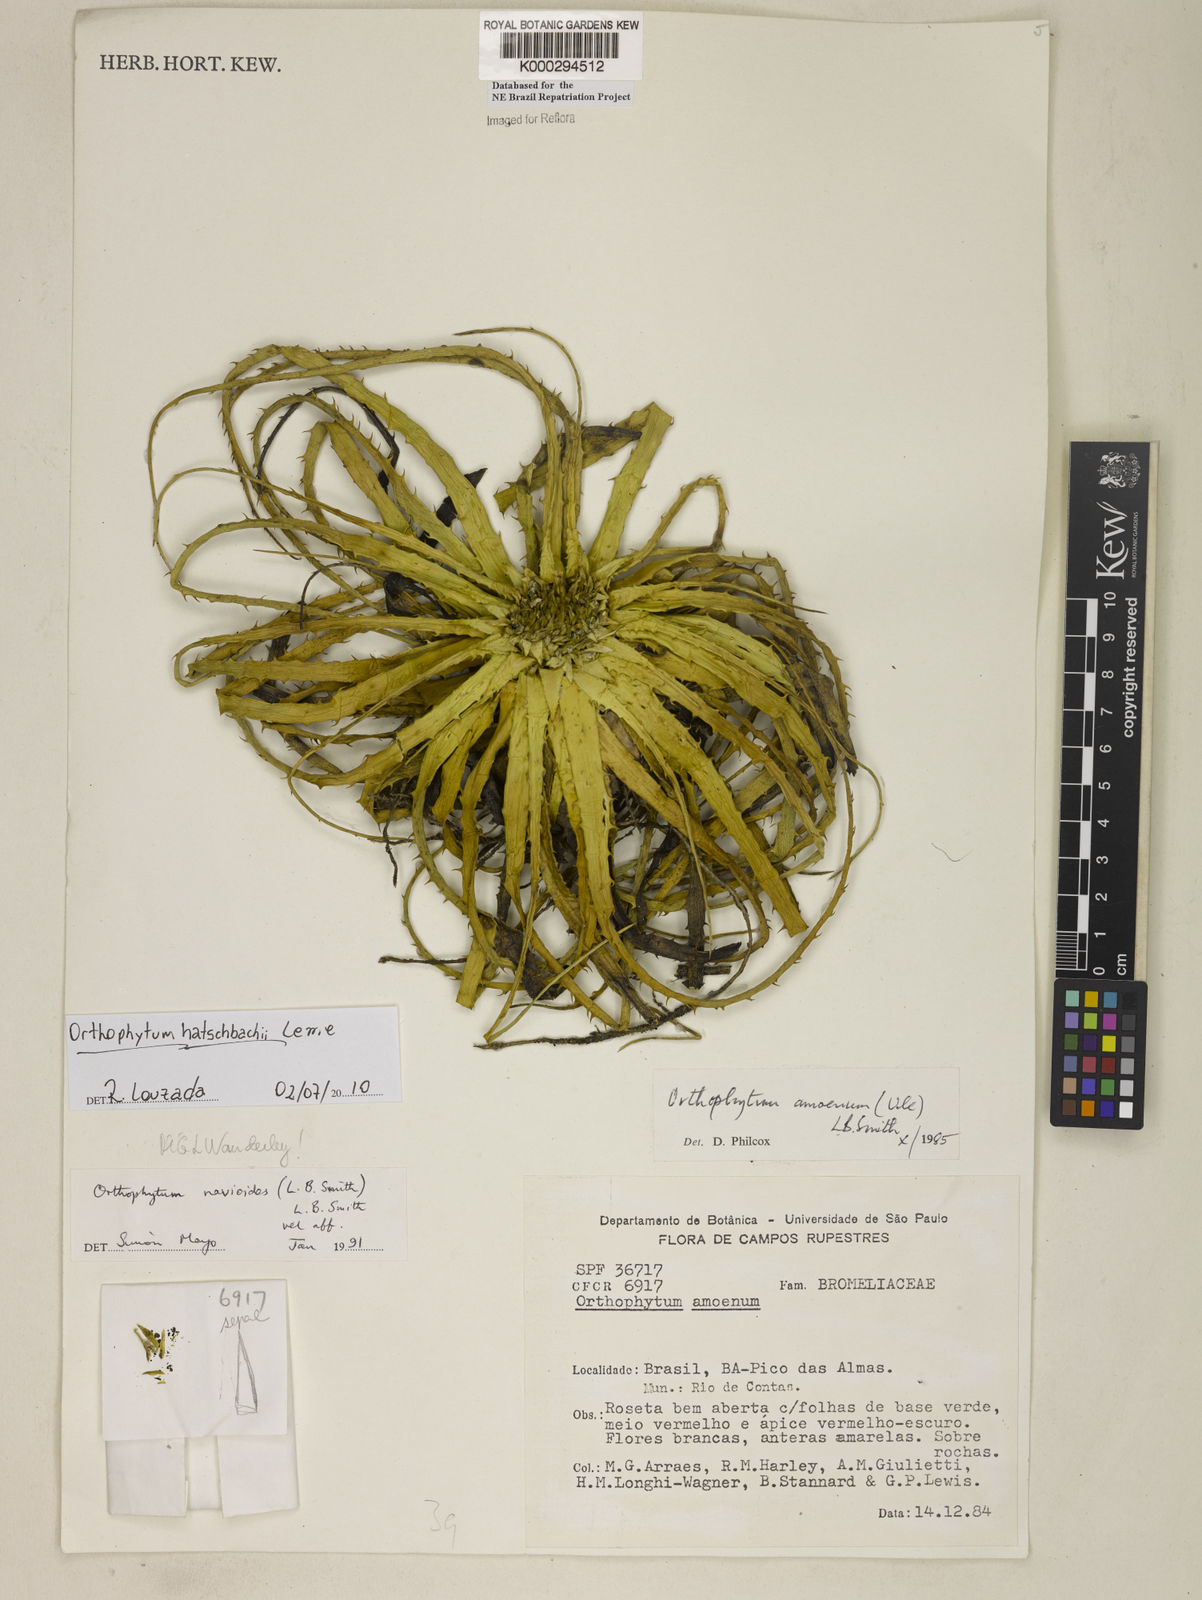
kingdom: Plantae
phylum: Tracheophyta
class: Liliopsida
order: Poales
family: Bromeliaceae
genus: Sincoraea
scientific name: Sincoraea navioides
